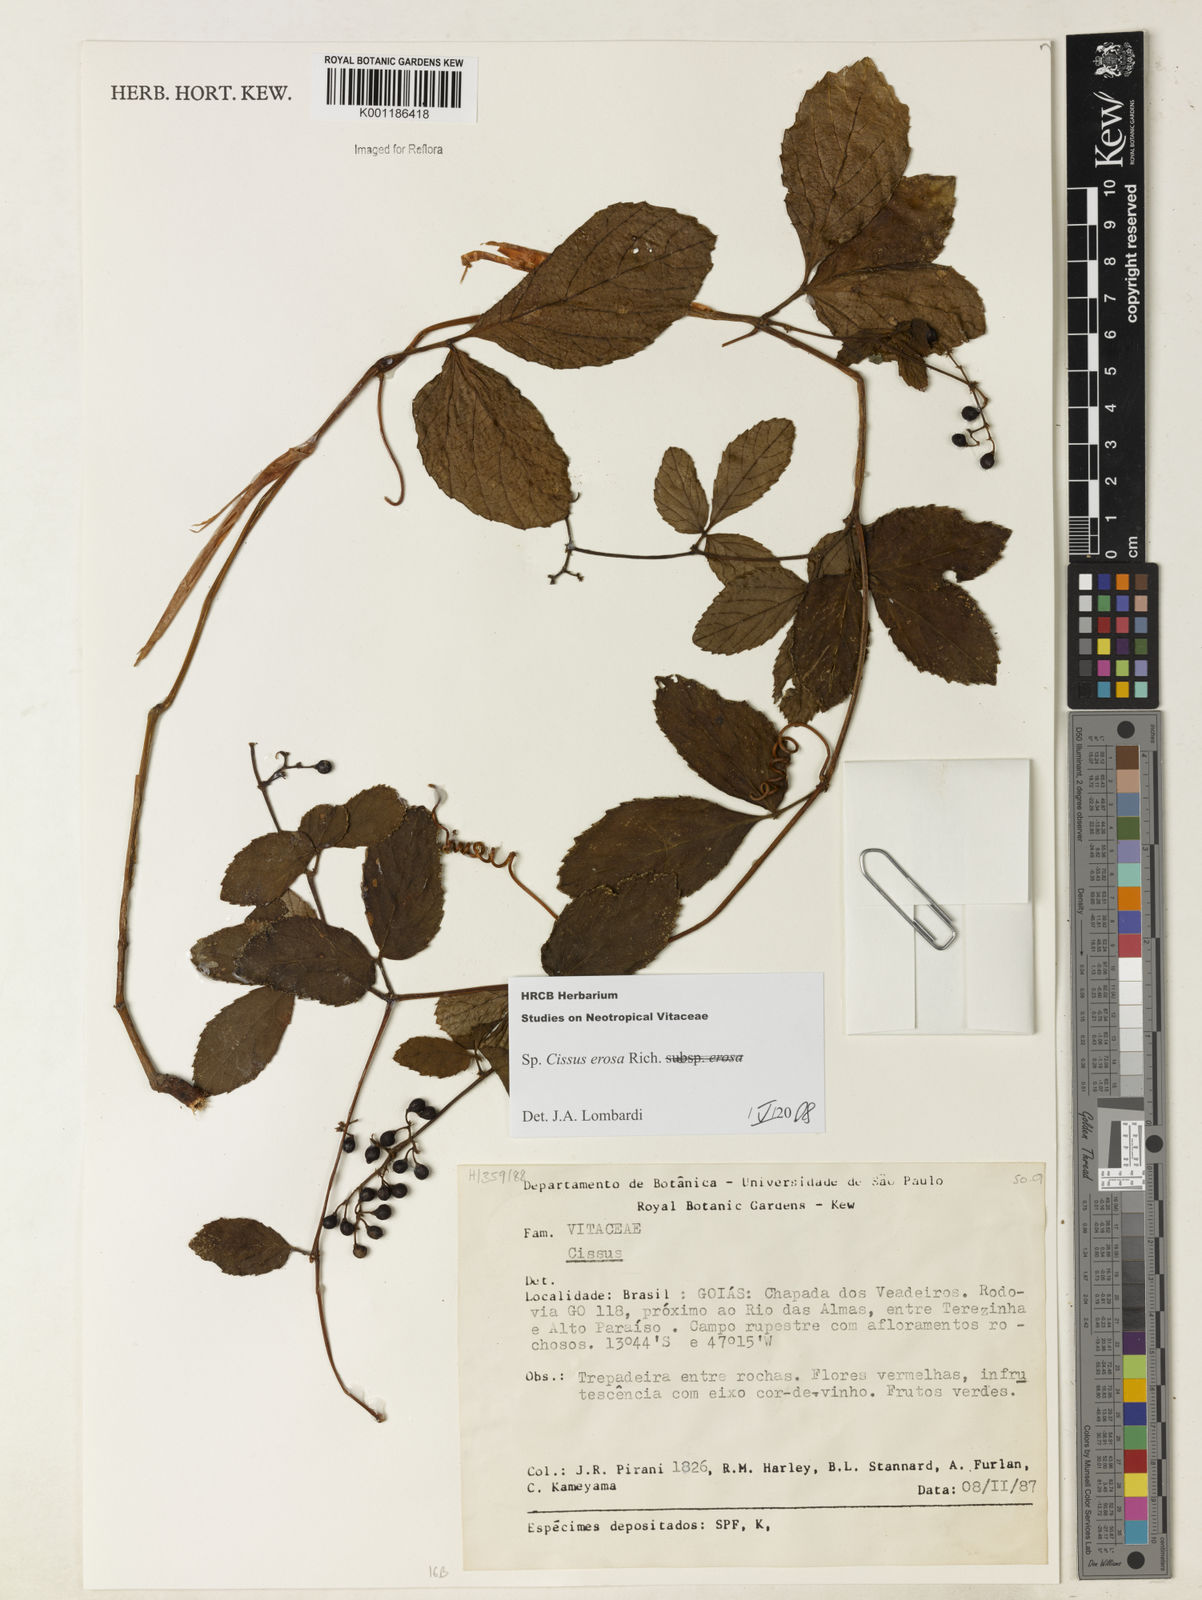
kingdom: Plantae
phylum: Tracheophyta
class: Magnoliopsida
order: Vitales
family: Vitaceae
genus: Cissus
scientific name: Cissus erosa
